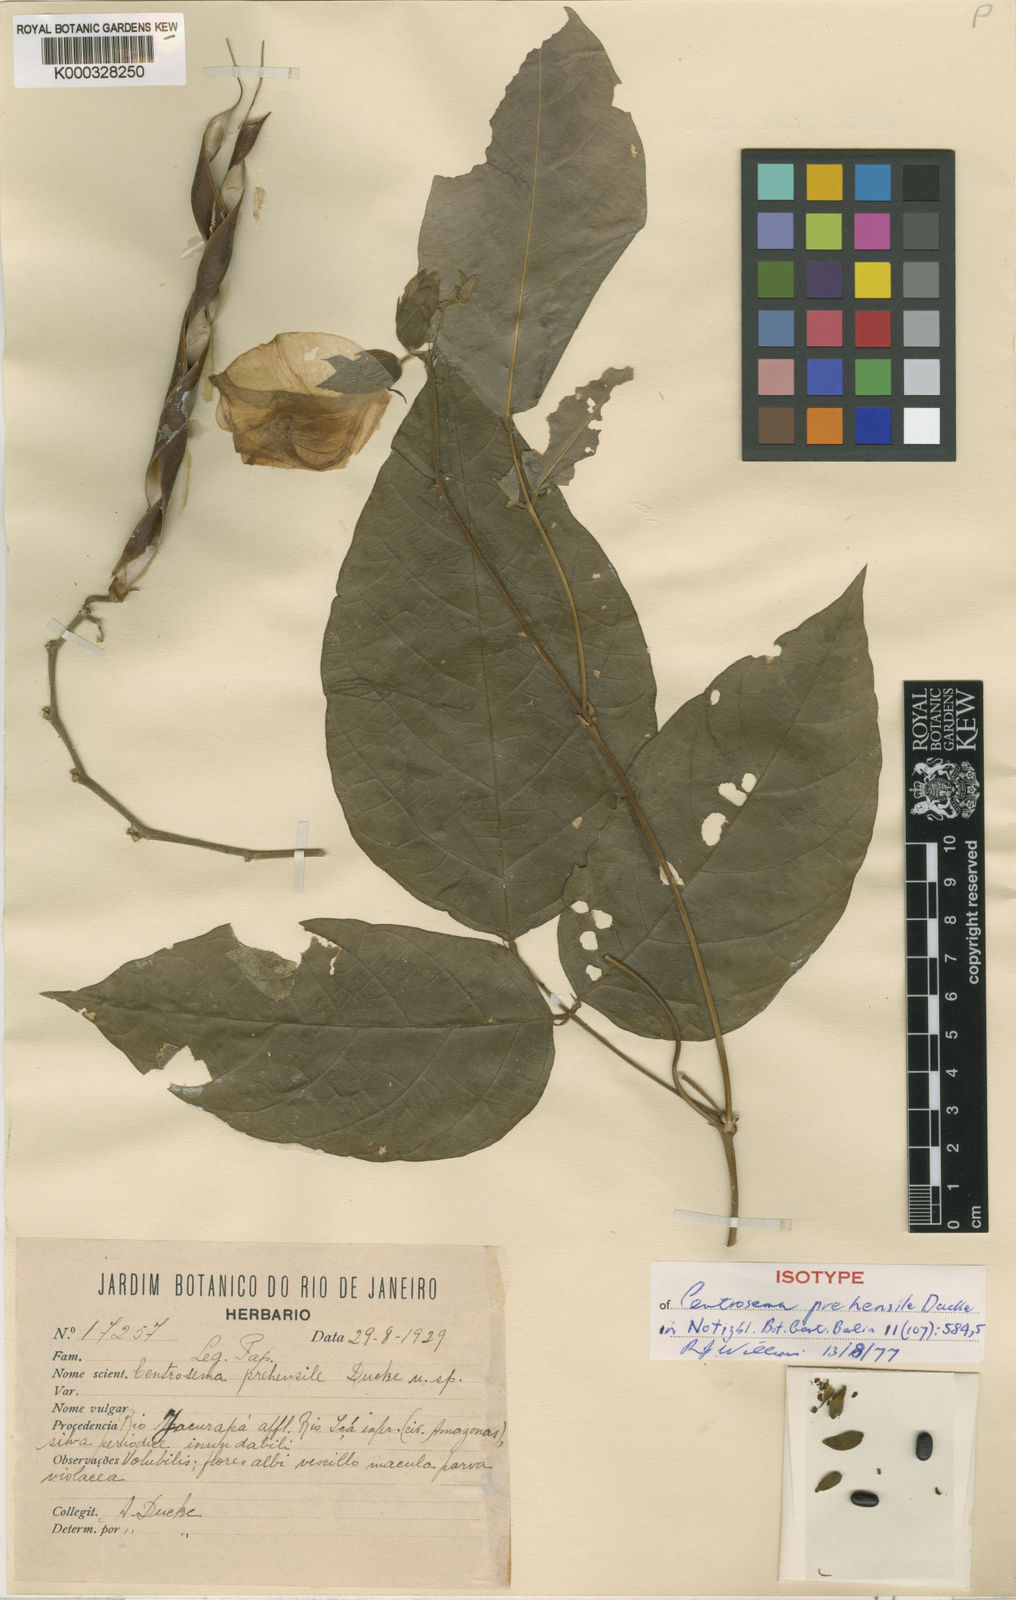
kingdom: Plantae
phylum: Tracheophyta
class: Magnoliopsida
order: Fabales
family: Fabaceae
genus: Centrosema
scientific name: Centrosema tapirapoanense
